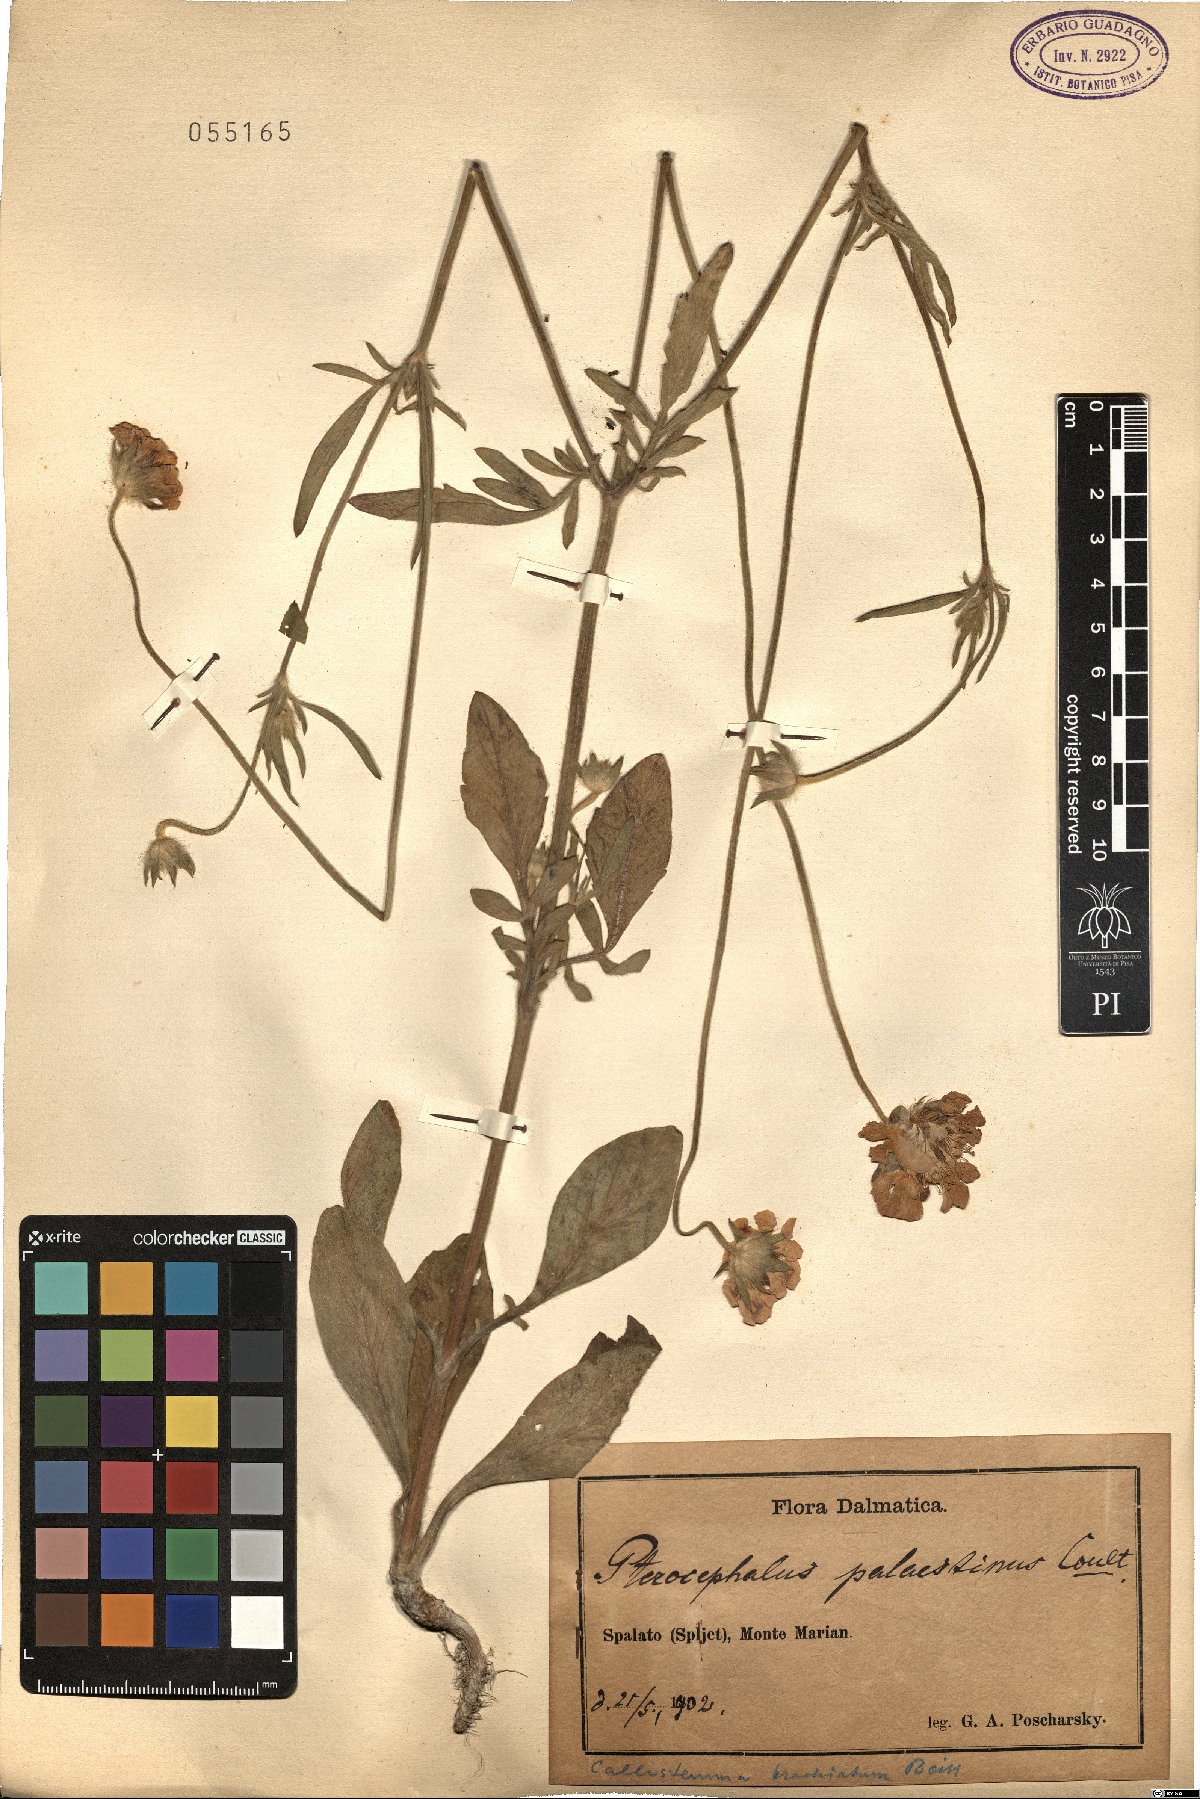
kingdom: Plantae
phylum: Tracheophyta
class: Magnoliopsida
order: Dipsacales
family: Caprifoliaceae
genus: Lomelosia
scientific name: Lomelosia palaestina
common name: Balkan pincushions
